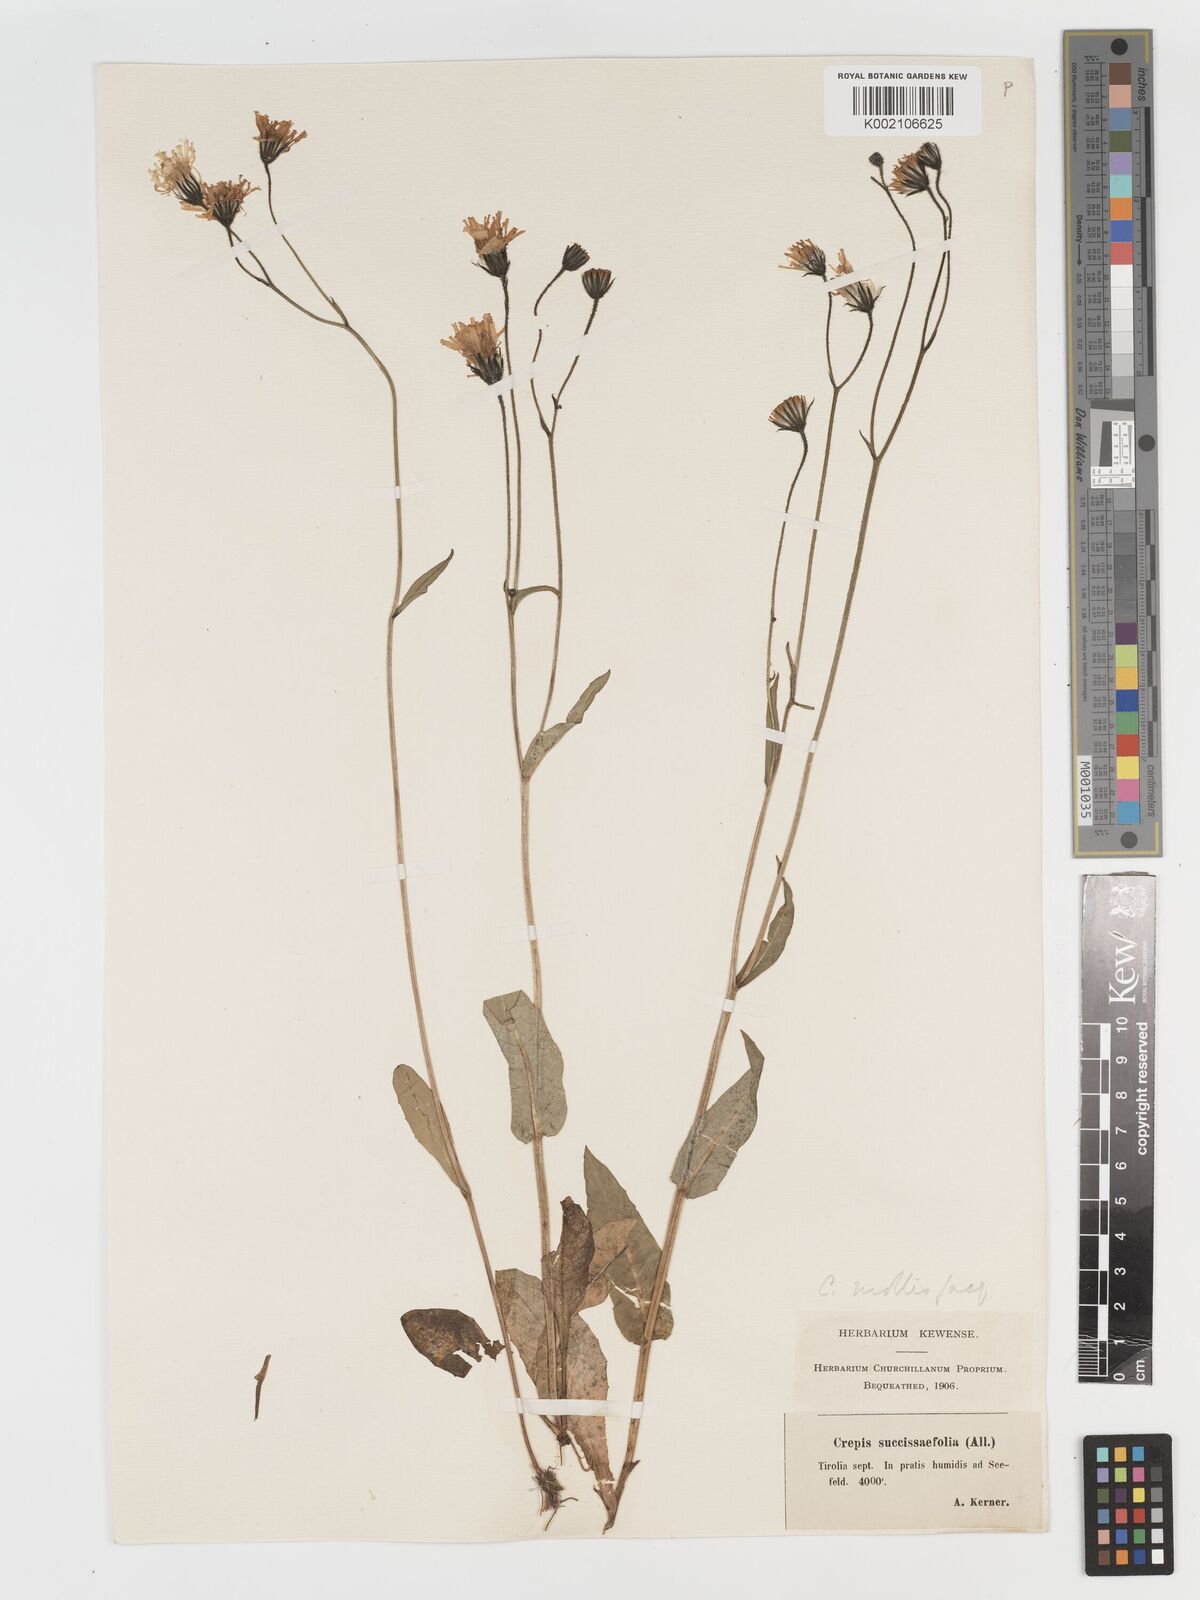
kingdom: Plantae
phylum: Tracheophyta
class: Magnoliopsida
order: Asterales
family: Asteraceae
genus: Crepis
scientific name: Crepis mollis
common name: Northern hawk's-beard
